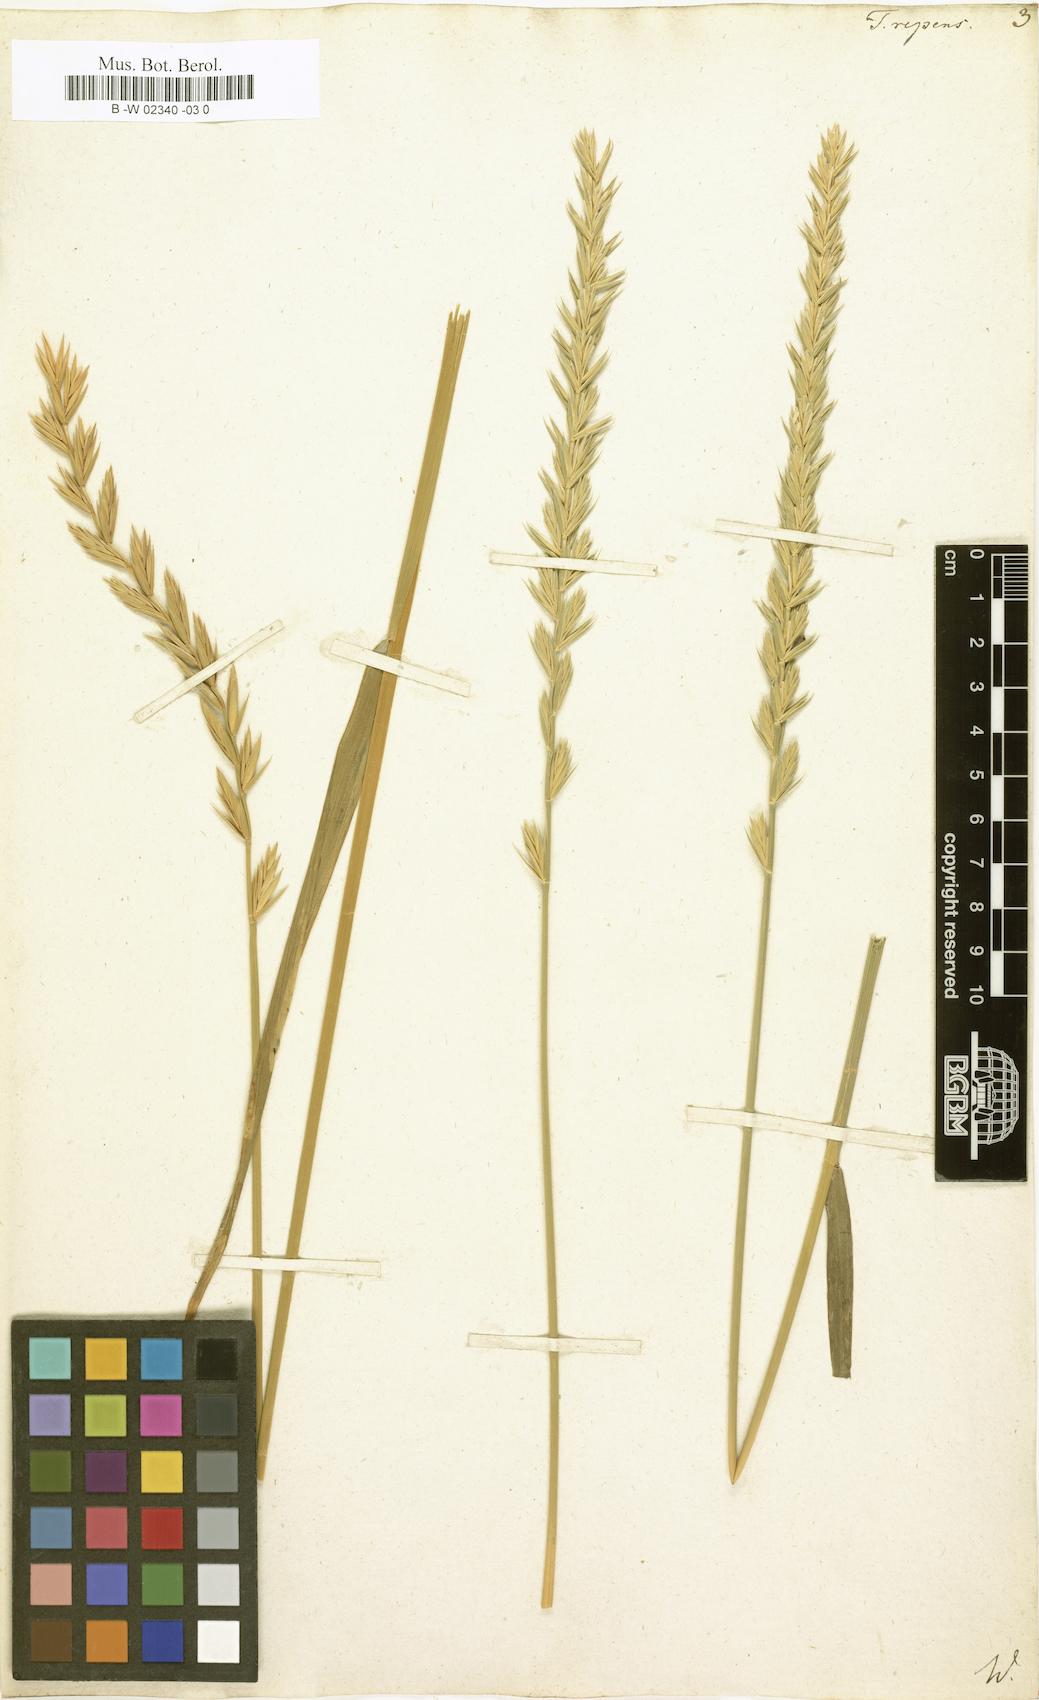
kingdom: Plantae
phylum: Tracheophyta
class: Liliopsida
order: Poales
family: Poaceae
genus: Elymus
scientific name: Elymus repens
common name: Quackgrass
